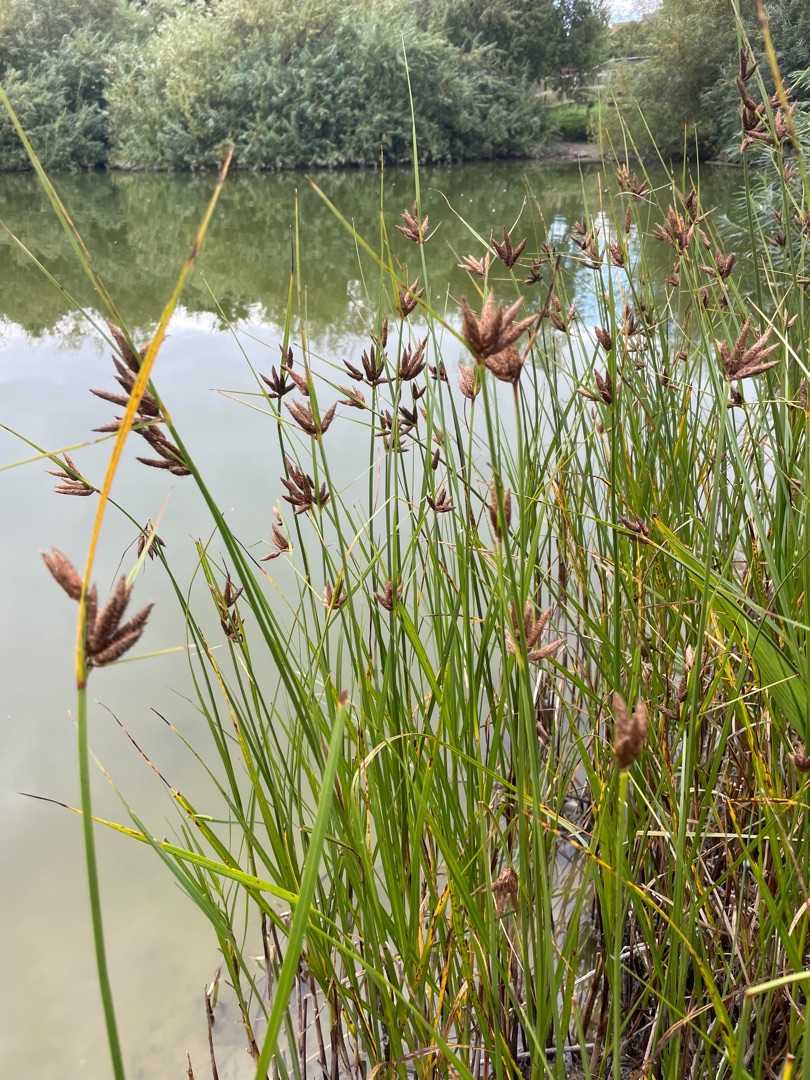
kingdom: Plantae
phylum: Tracheophyta
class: Liliopsida
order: Poales
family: Cyperaceae
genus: Bolboschoenus
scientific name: Bolboschoenus maritimus
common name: Strand-kogleaks
